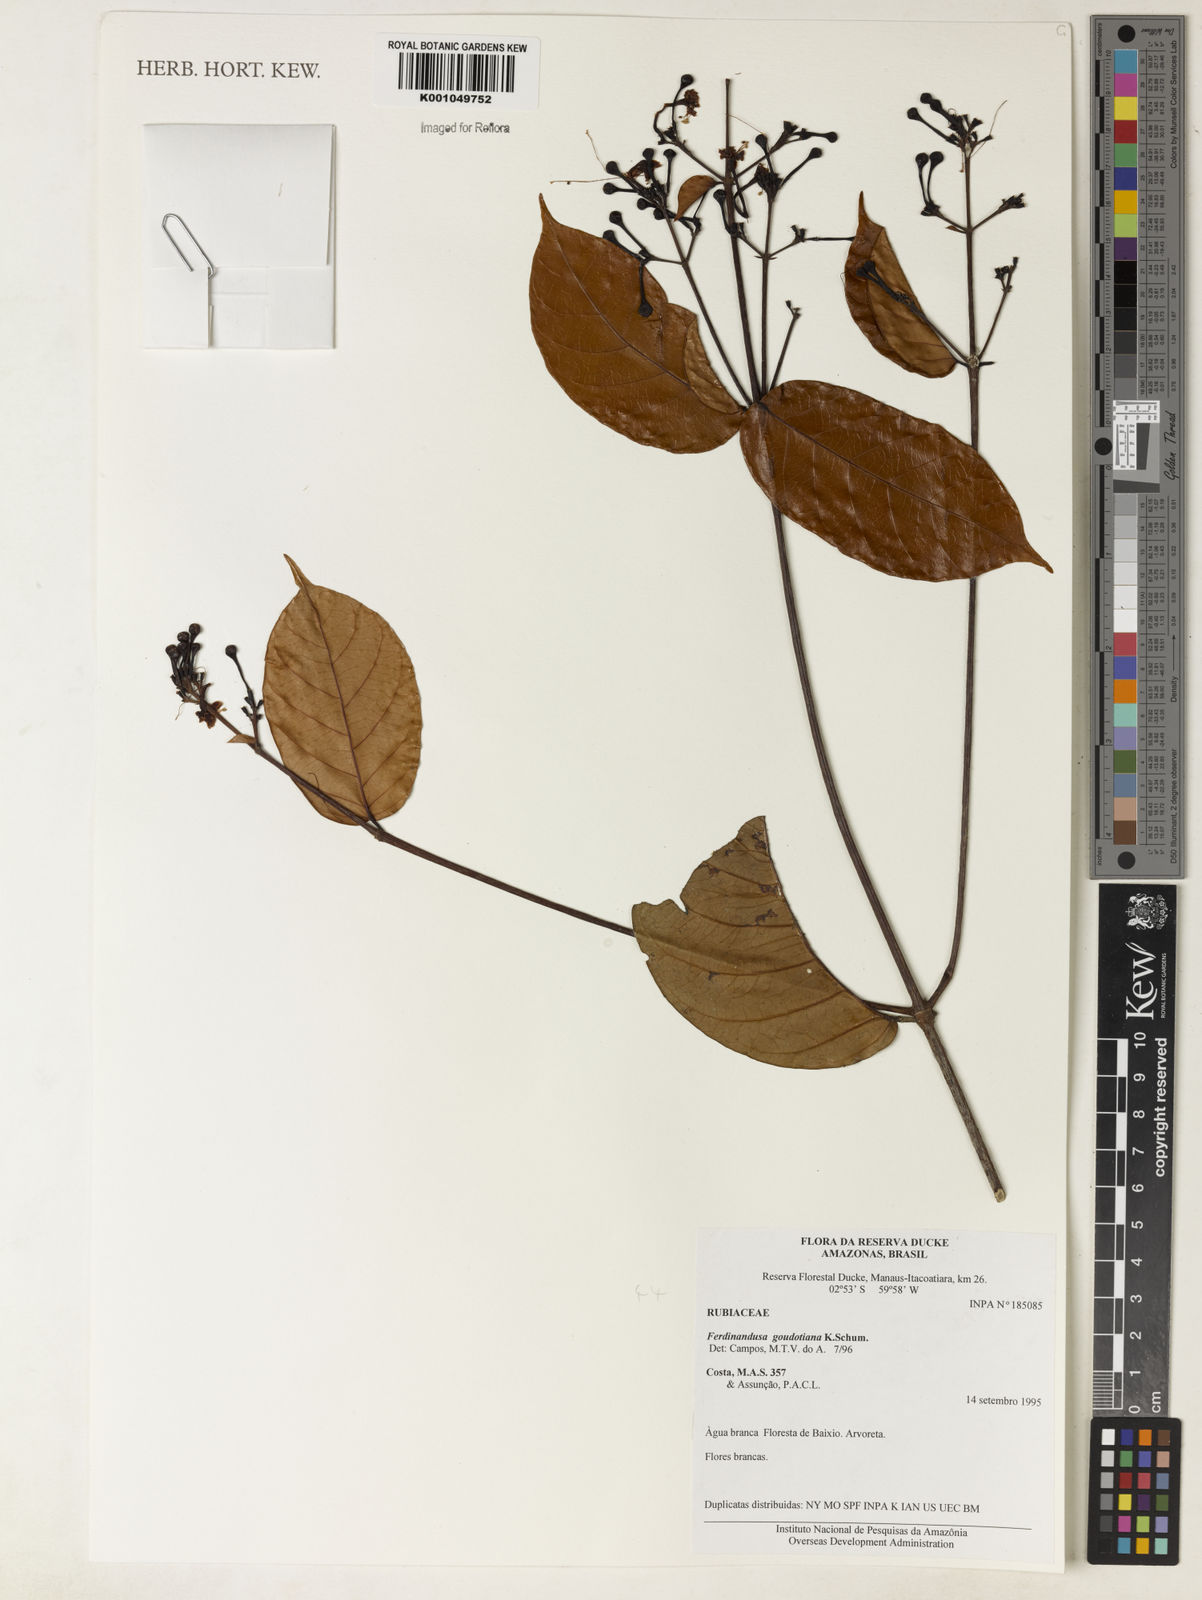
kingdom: Plantae
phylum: Tracheophyta
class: Magnoliopsida
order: Gentianales
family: Rubiaceae
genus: Ferdinandusa
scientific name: Ferdinandusa goudotiana
